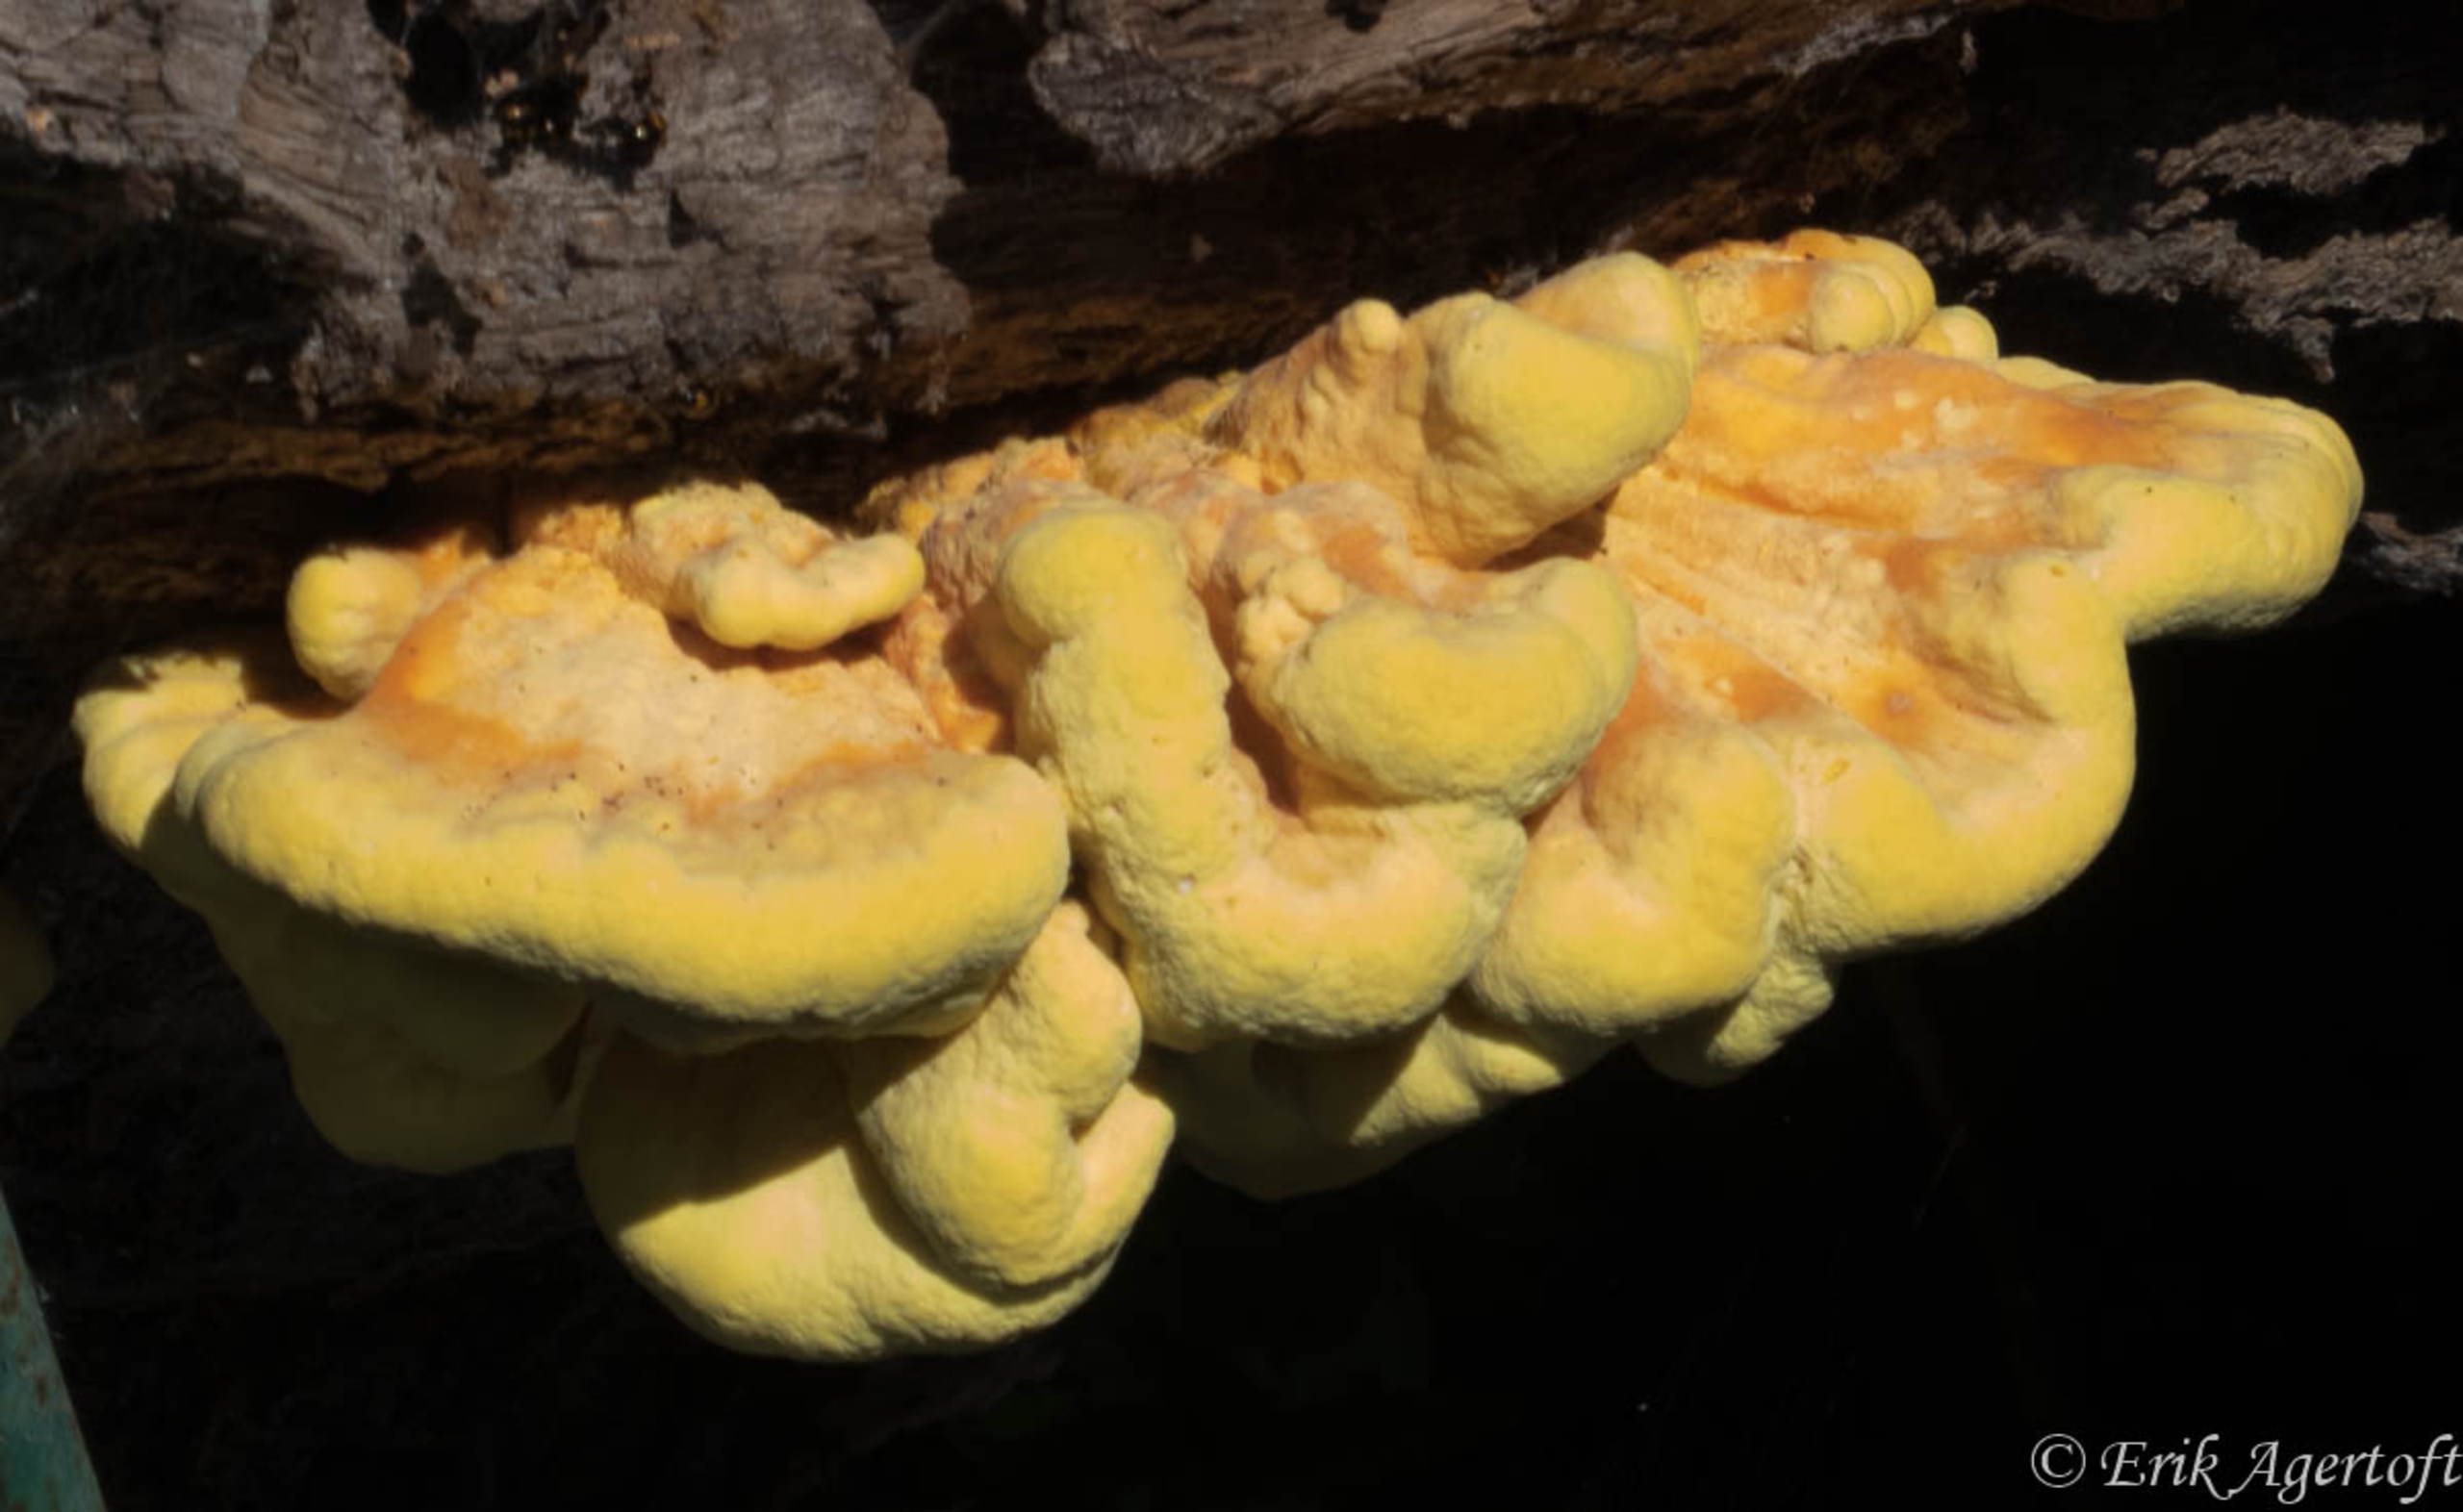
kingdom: Fungi
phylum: Basidiomycota
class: Agaricomycetes
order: Polyporales
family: Laetiporaceae
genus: Laetiporus
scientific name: Laetiporus sulphureus
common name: Svovlporesvamp
